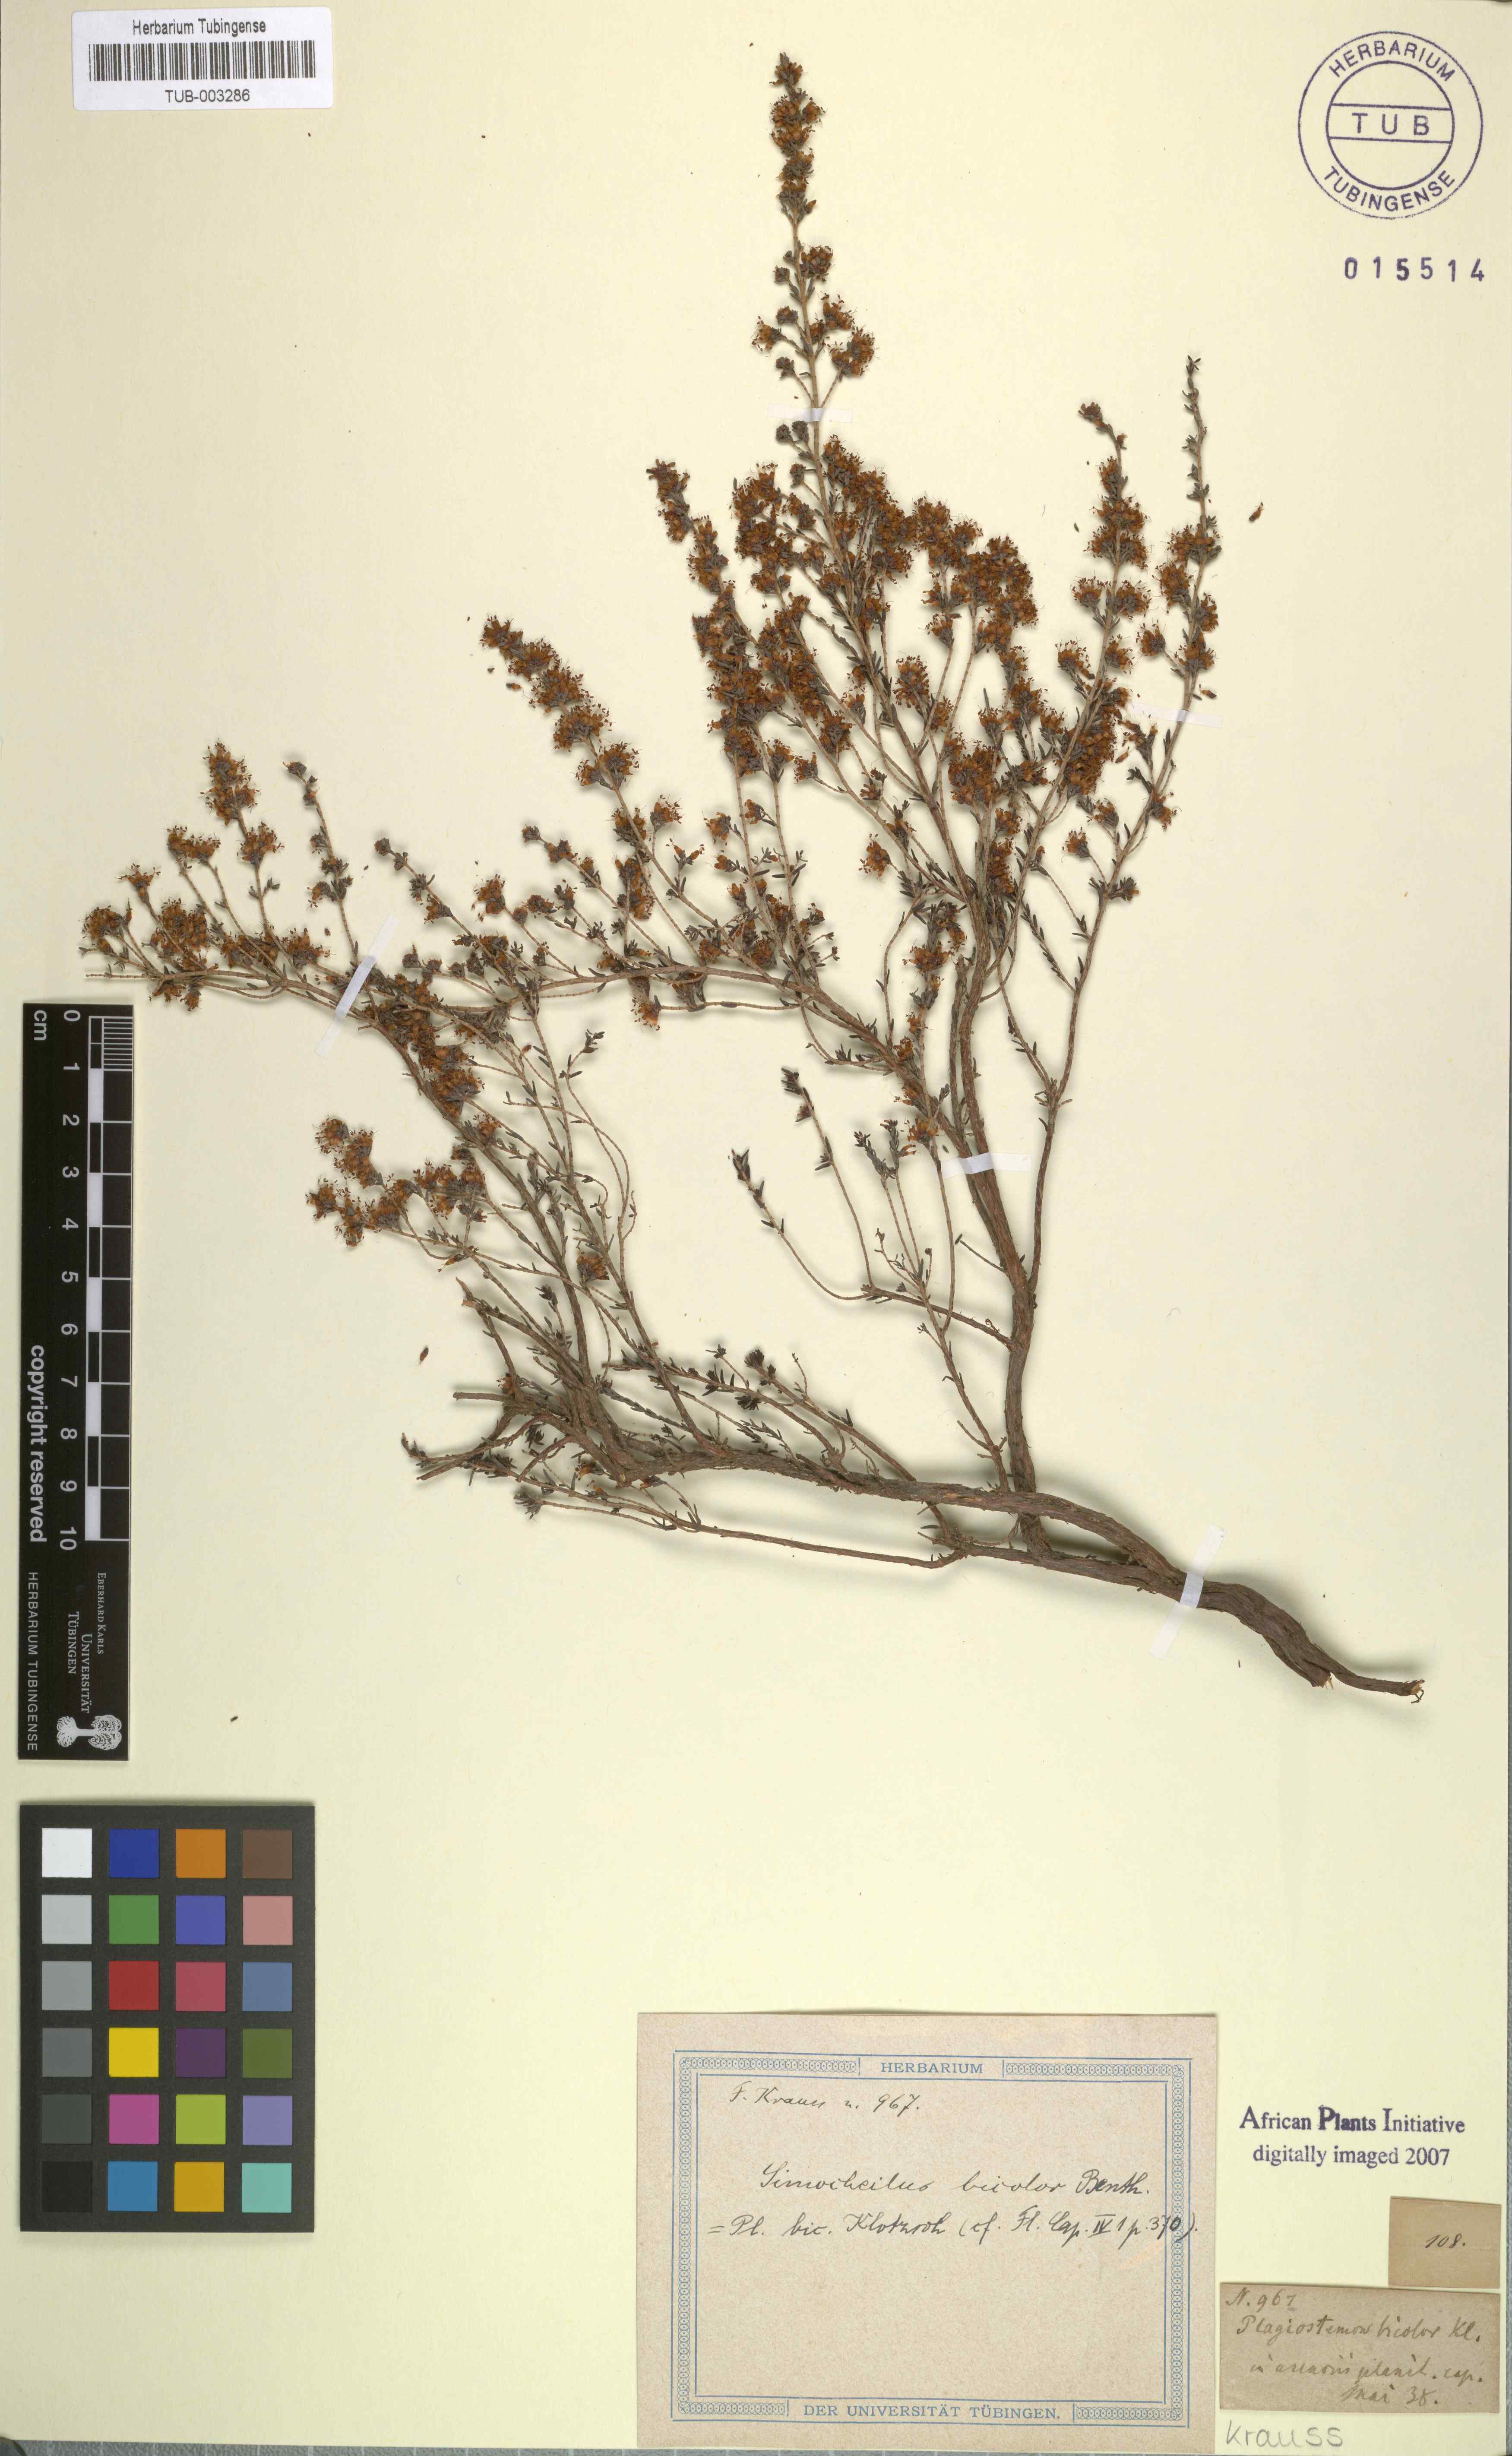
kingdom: Plantae
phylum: Tracheophyta
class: Magnoliopsida
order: Ericales
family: Ericaceae
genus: Erica
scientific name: Erica glabra
